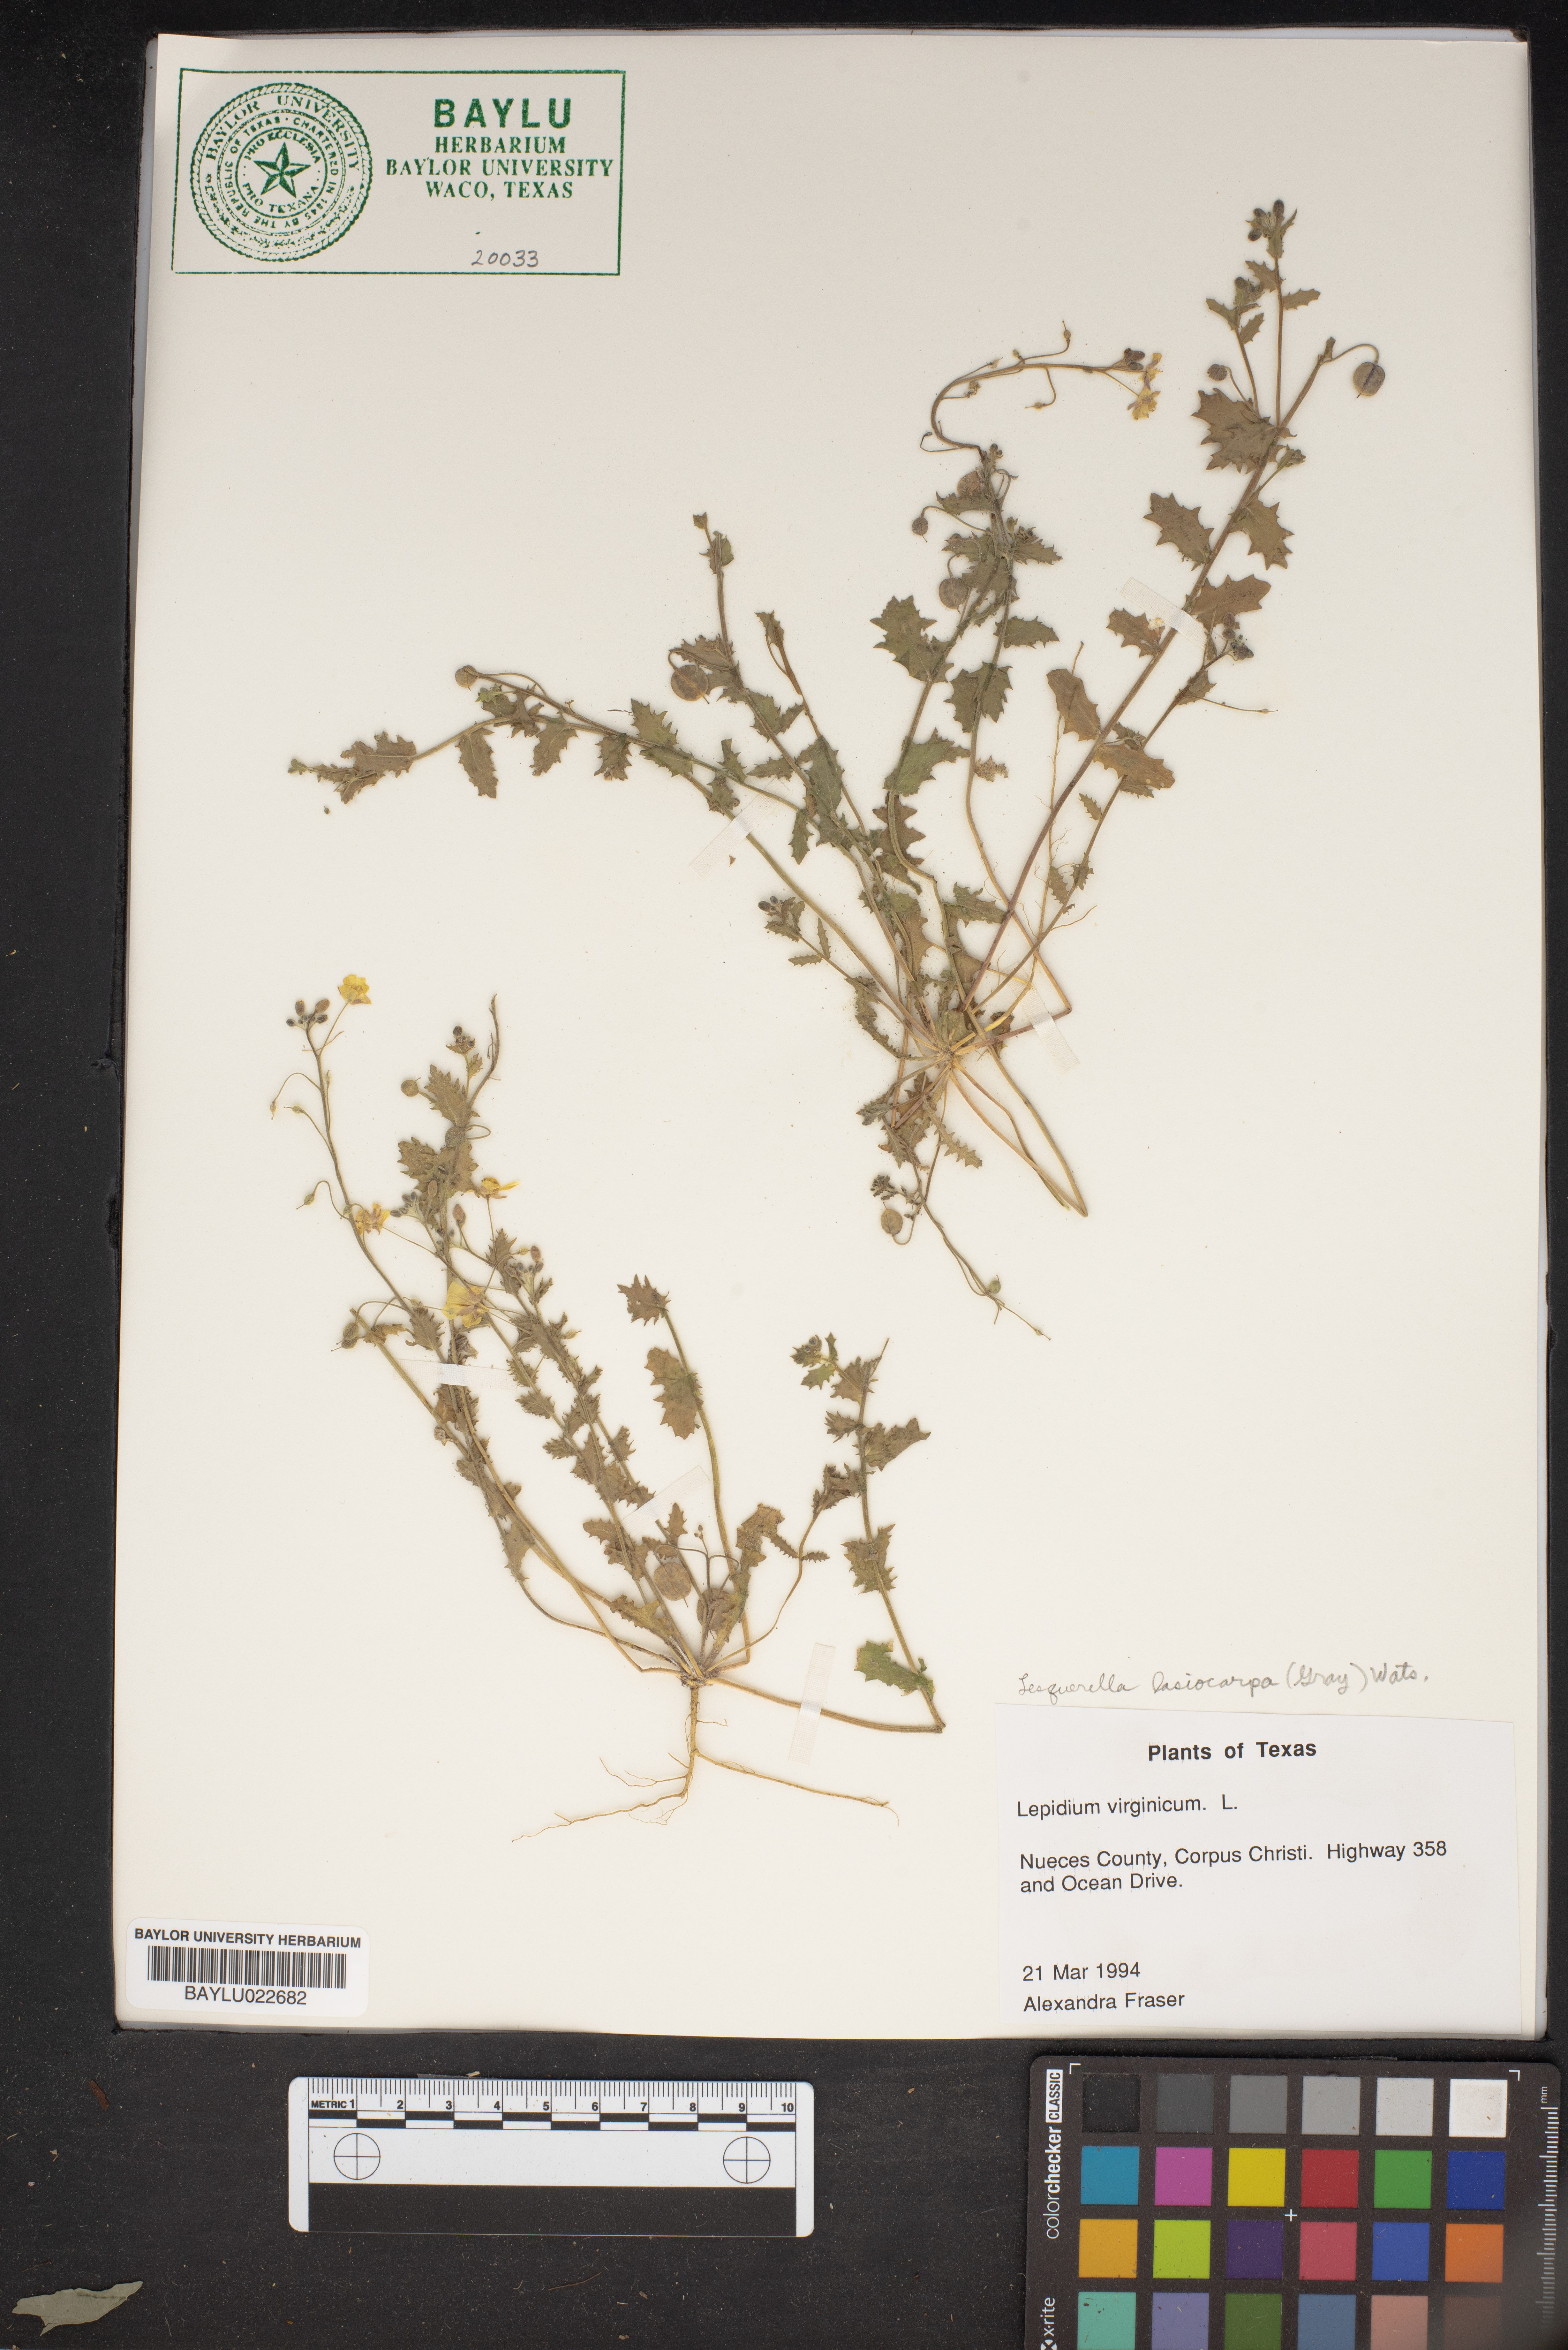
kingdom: Plantae
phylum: Tracheophyta
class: Magnoliopsida
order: Brassicales
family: Brassicaceae
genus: Lepidium
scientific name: Lepidium virginicum
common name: Least pepperwort
